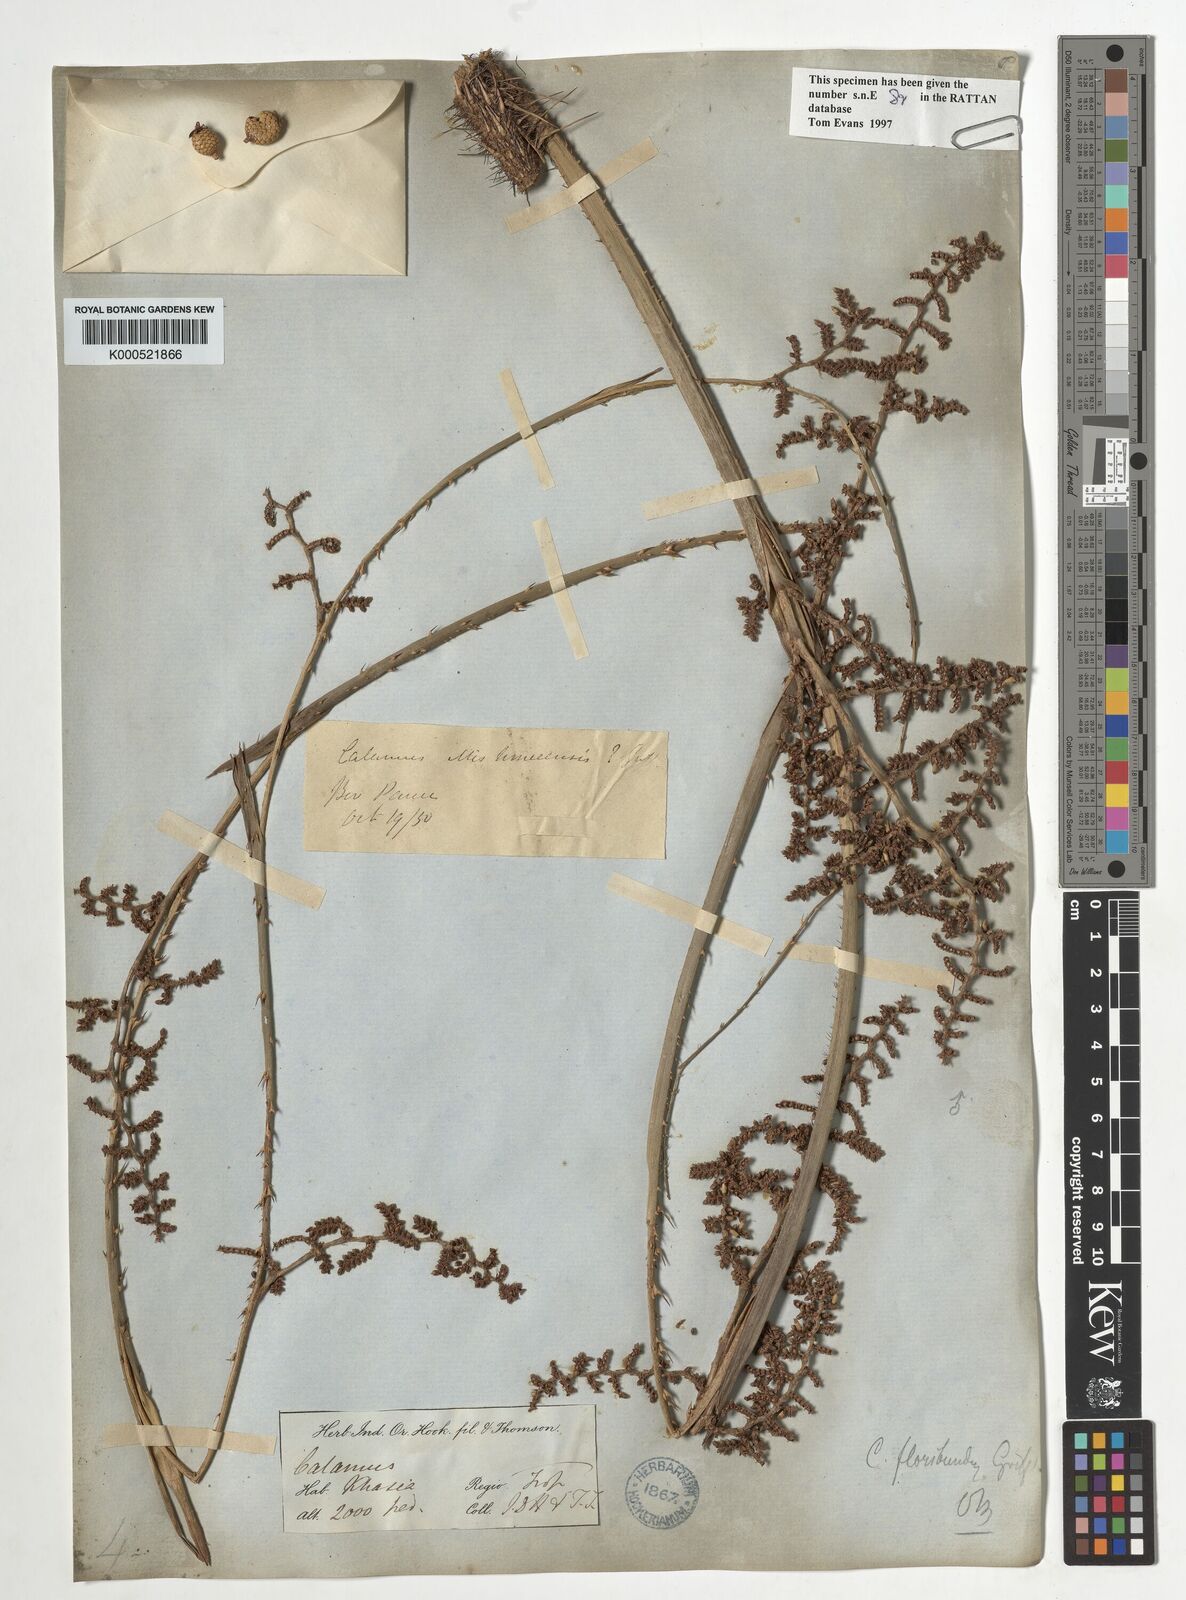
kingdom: Plantae
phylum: Tracheophyta
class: Liliopsida
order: Arecales
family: Arecaceae
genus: Calamus
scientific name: Calamus floribundus
